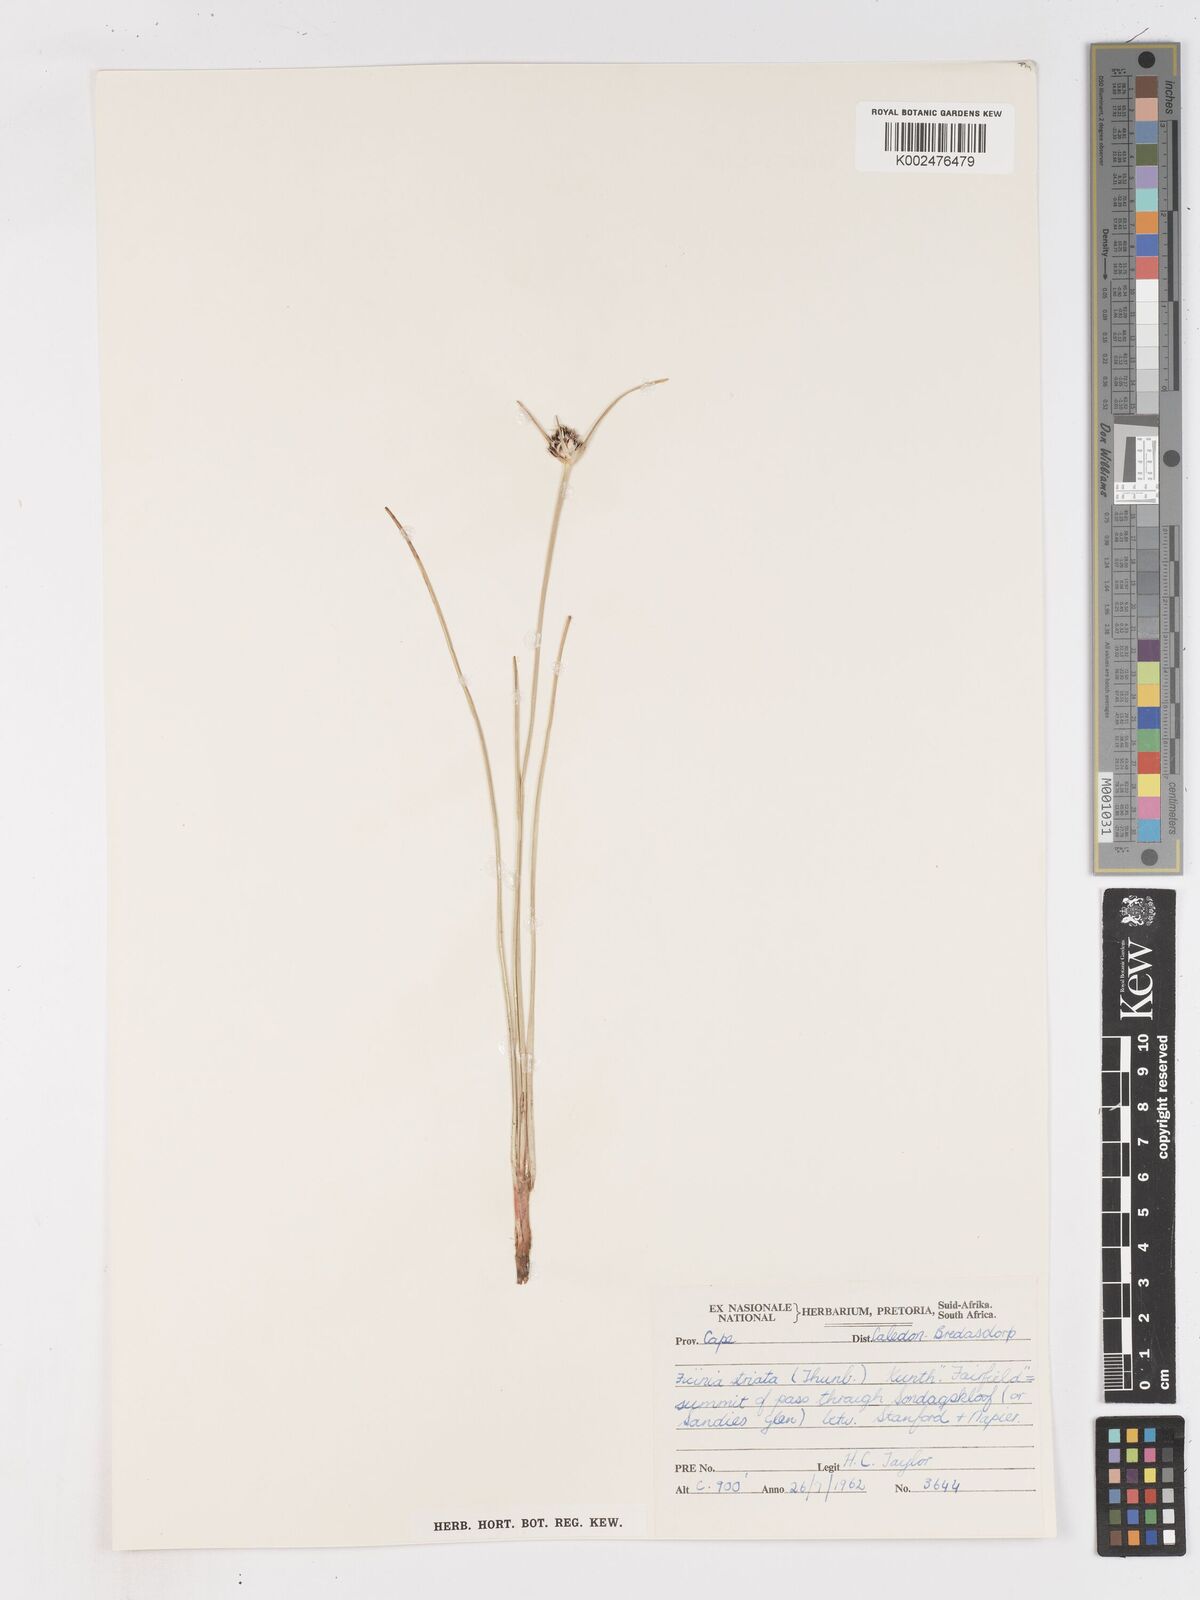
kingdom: Plantae
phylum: Tracheophyta
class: Liliopsida
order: Poales
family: Cyperaceae
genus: Ficinia
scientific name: Ficinia indica
